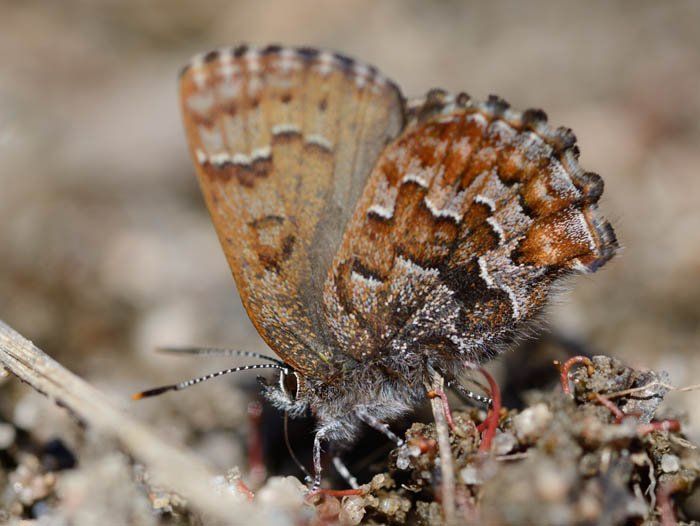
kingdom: Animalia
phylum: Arthropoda
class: Insecta
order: Lepidoptera
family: Lycaenidae
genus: Incisalia
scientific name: Incisalia niphon
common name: Eastern Pine Elfin
